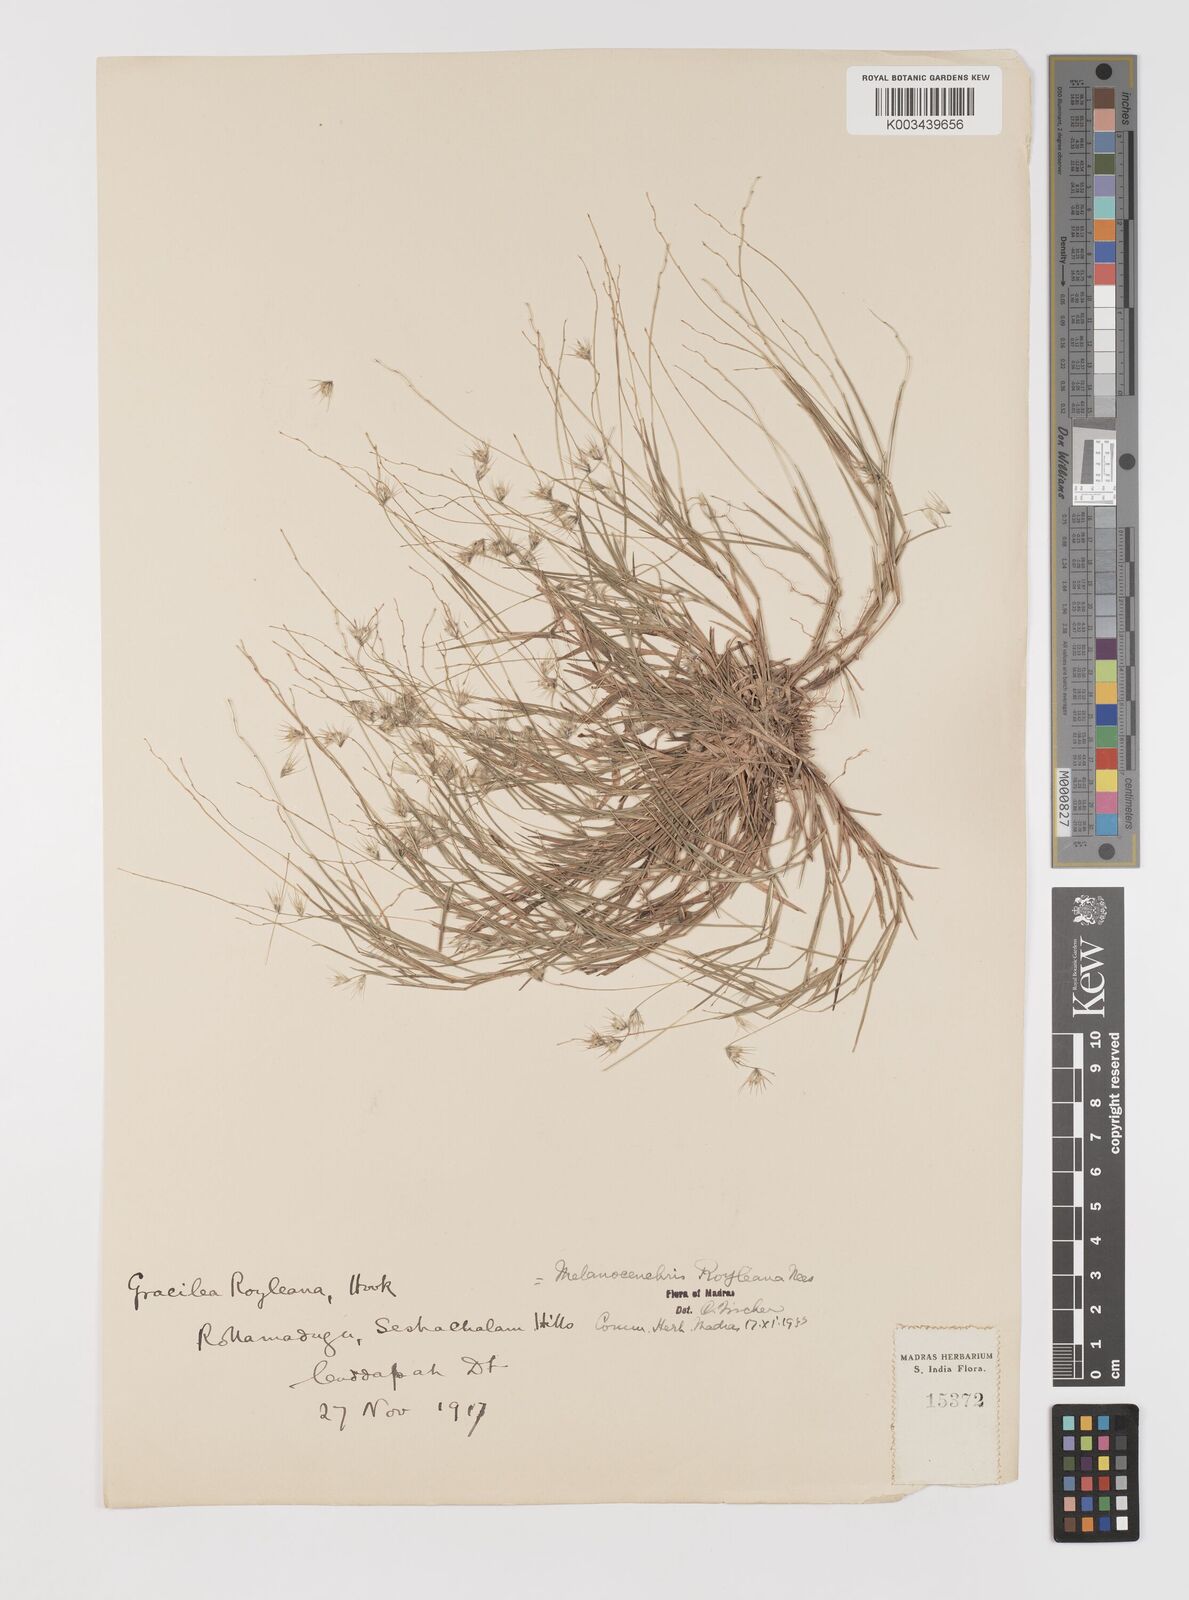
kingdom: Plantae
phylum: Tracheophyta
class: Liliopsida
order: Poales
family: Poaceae
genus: Melanocenchris
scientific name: Melanocenchris jacquemontii
